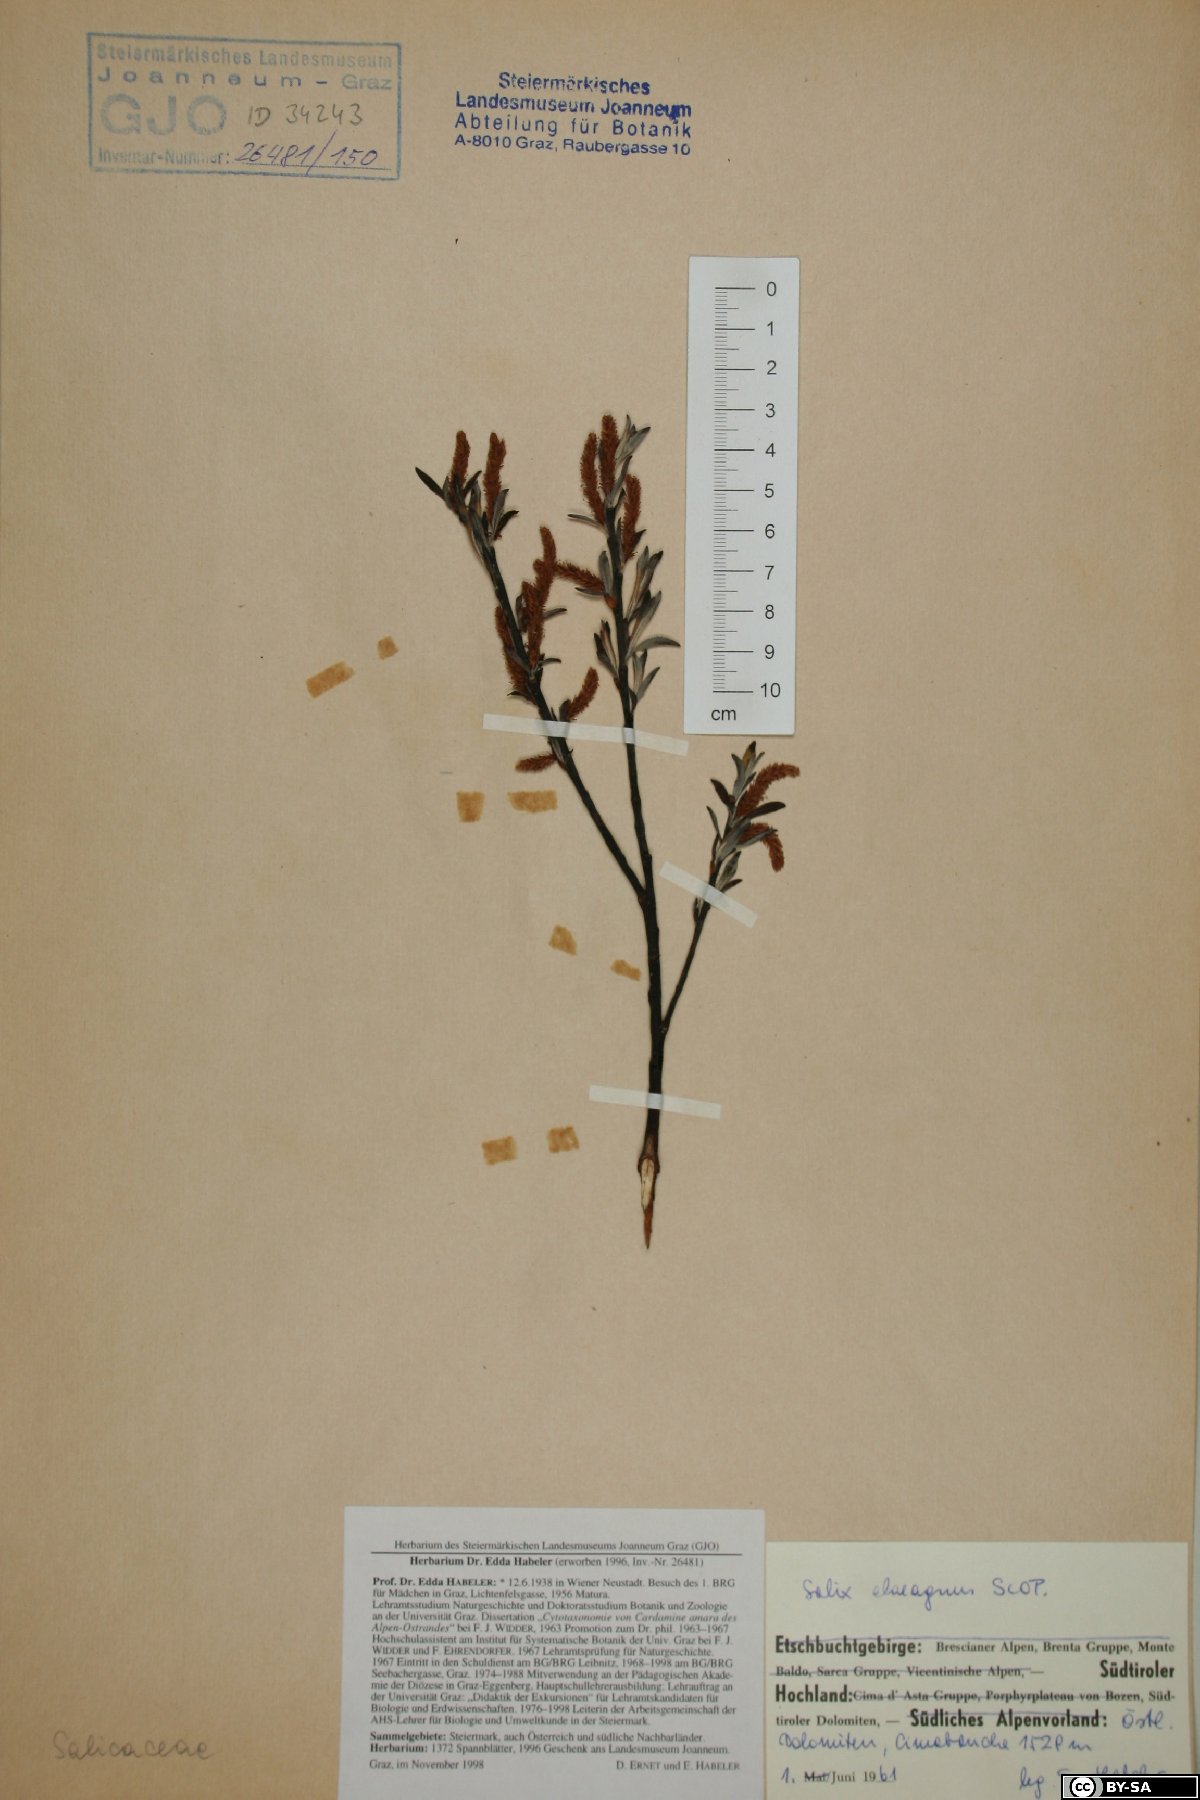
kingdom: Plantae
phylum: Tracheophyta
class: Magnoliopsida
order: Malpighiales
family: Salicaceae
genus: Salix
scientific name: Salix eleagnos
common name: Elaeagnus willow
